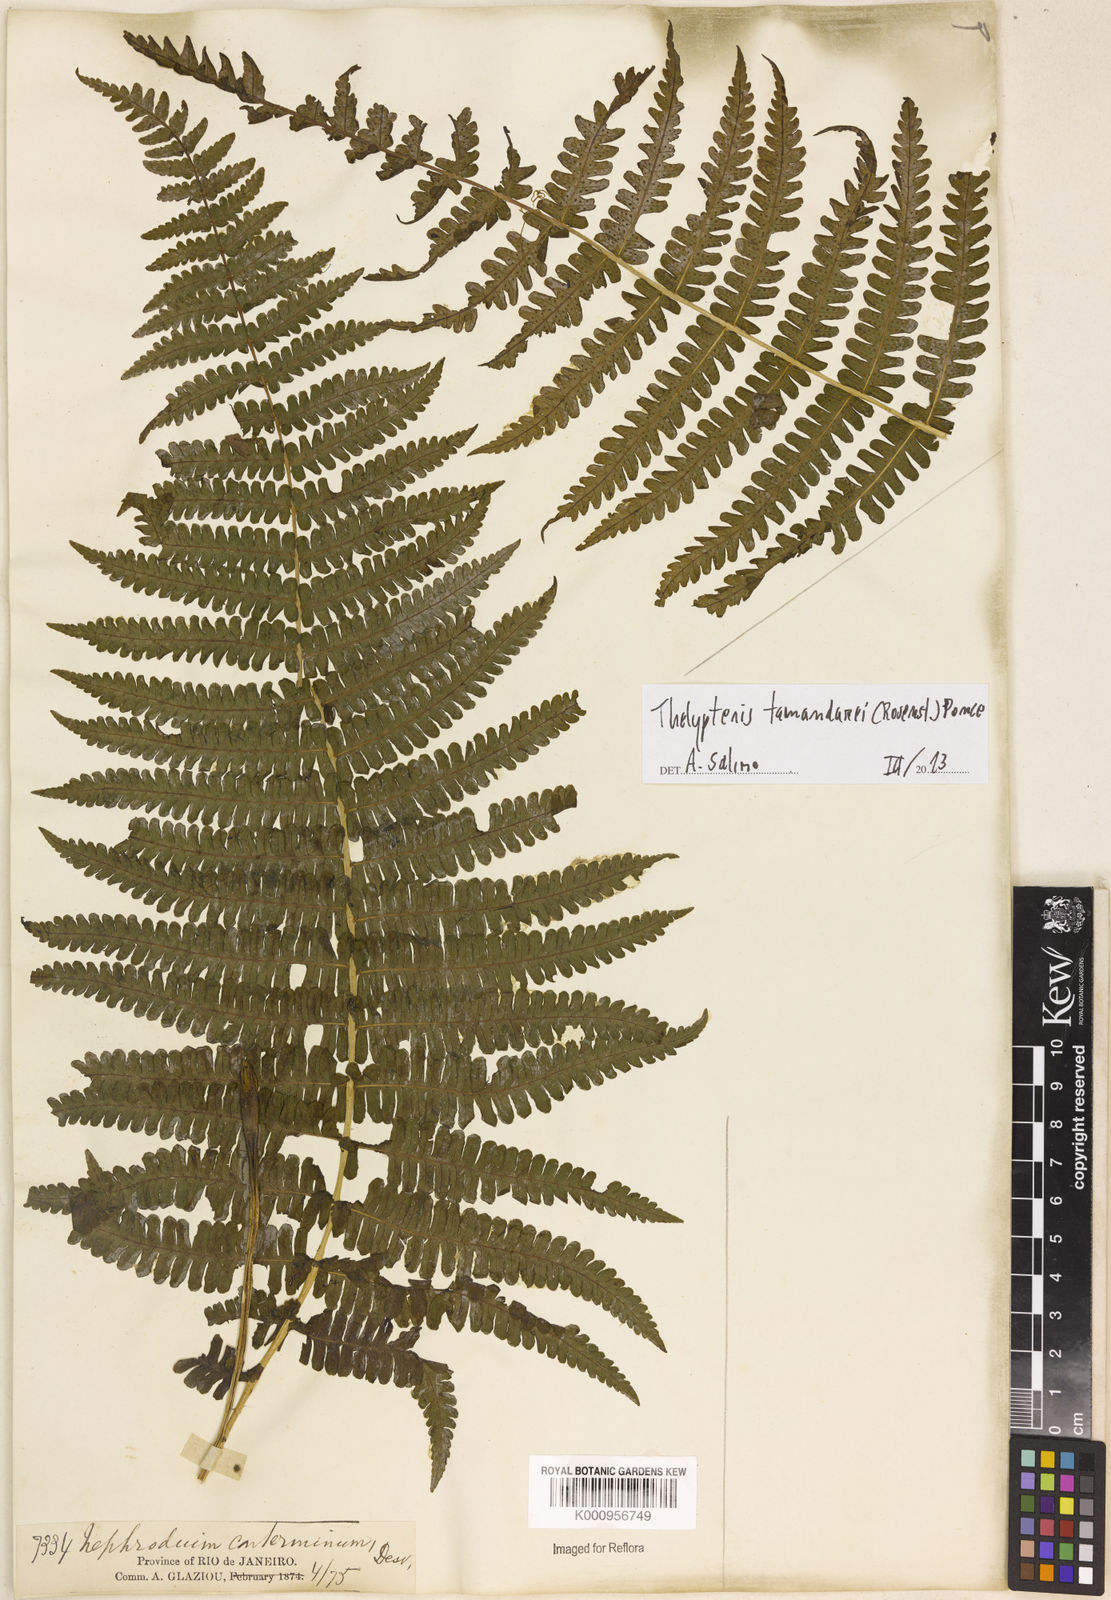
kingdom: Plantae
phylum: Tracheophyta
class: Polypodiopsida
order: Polypodiales
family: Thelypteridaceae
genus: Amauropelta
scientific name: Amauropelta tamandarei
